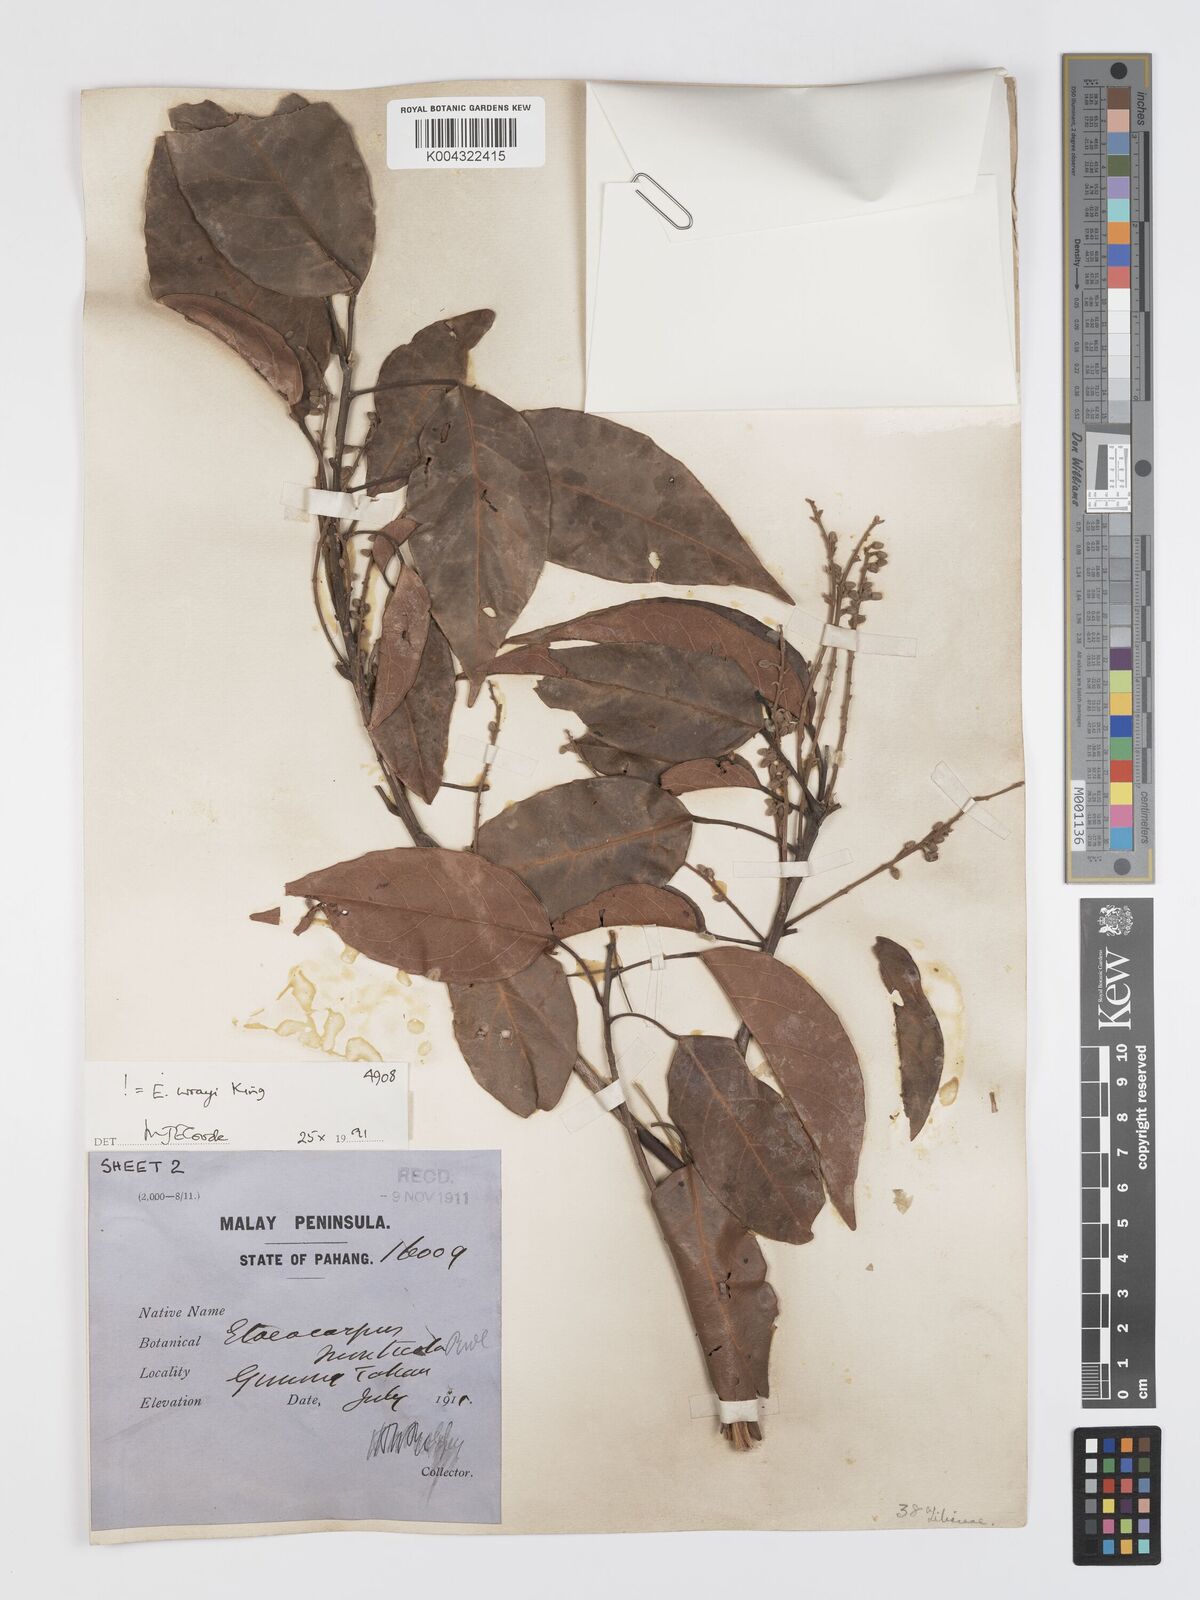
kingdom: Plantae
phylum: Tracheophyta
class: Magnoliopsida
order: Oxalidales
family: Elaeocarpaceae
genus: Elaeocarpus
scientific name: Elaeocarpus nitidus
